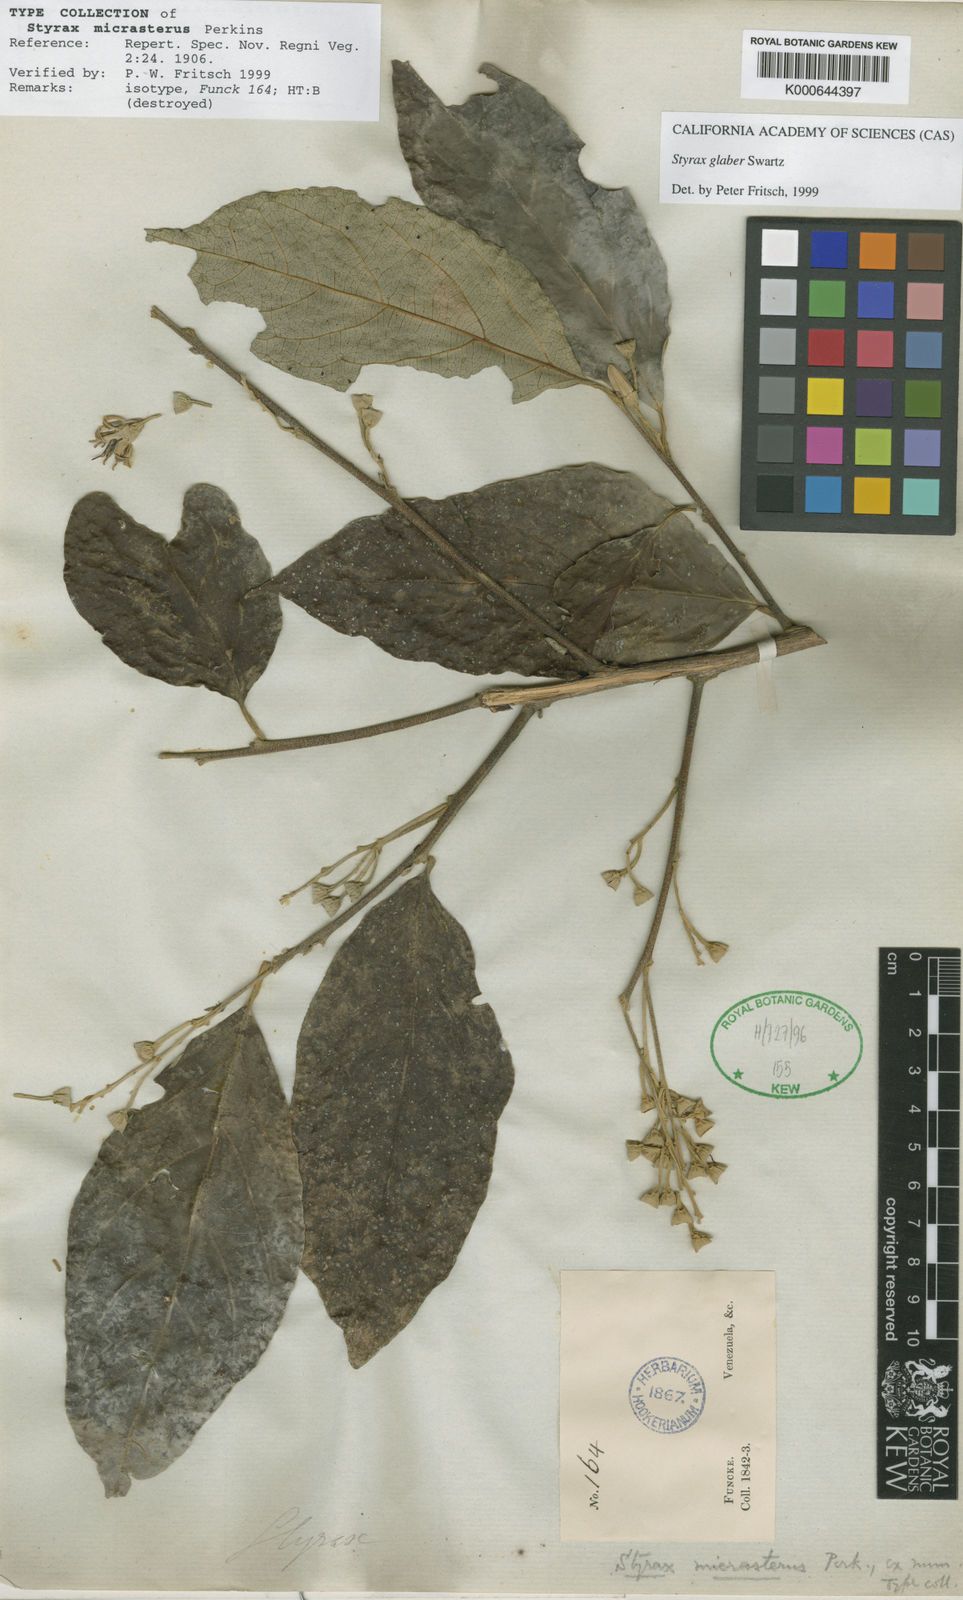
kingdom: Plantae
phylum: Tracheophyta
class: Magnoliopsida
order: Ericales
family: Styracaceae
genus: Styrax
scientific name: Styrax glaber
